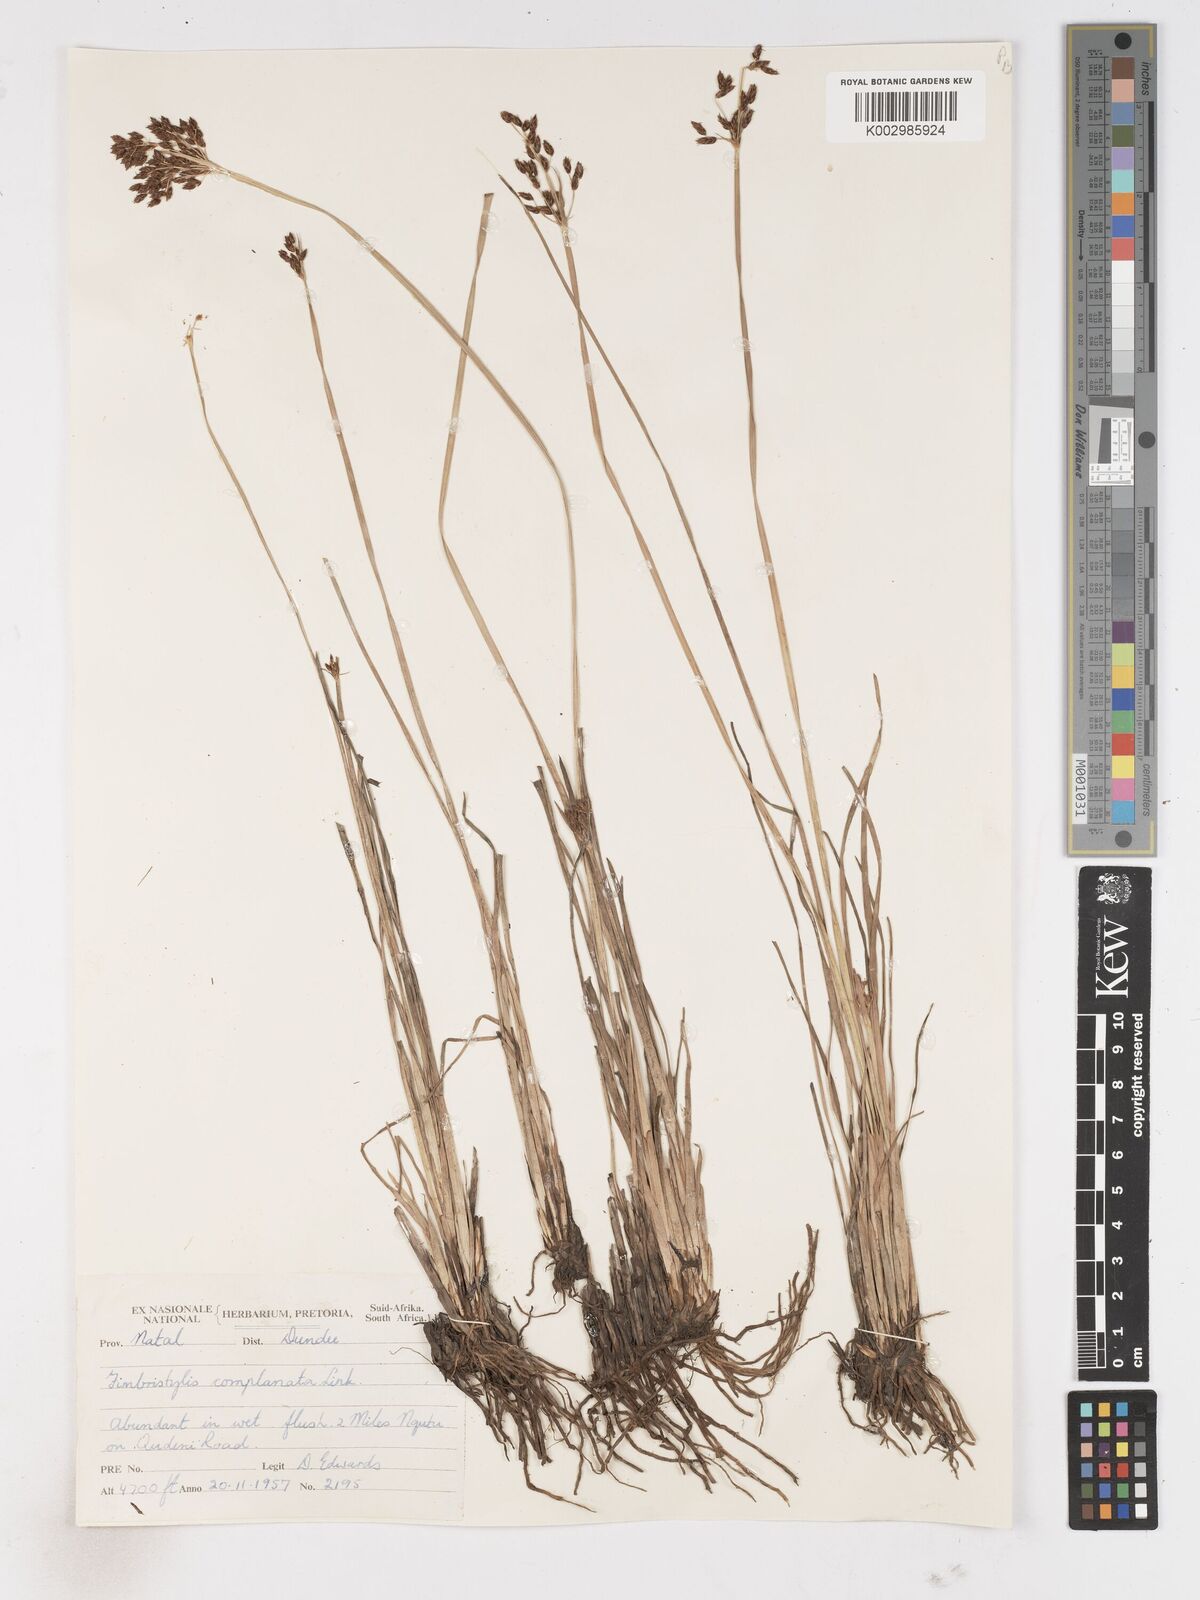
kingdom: Plantae
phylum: Tracheophyta
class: Liliopsida
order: Poales
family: Cyperaceae
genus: Fimbristylis
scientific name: Fimbristylis complanata
